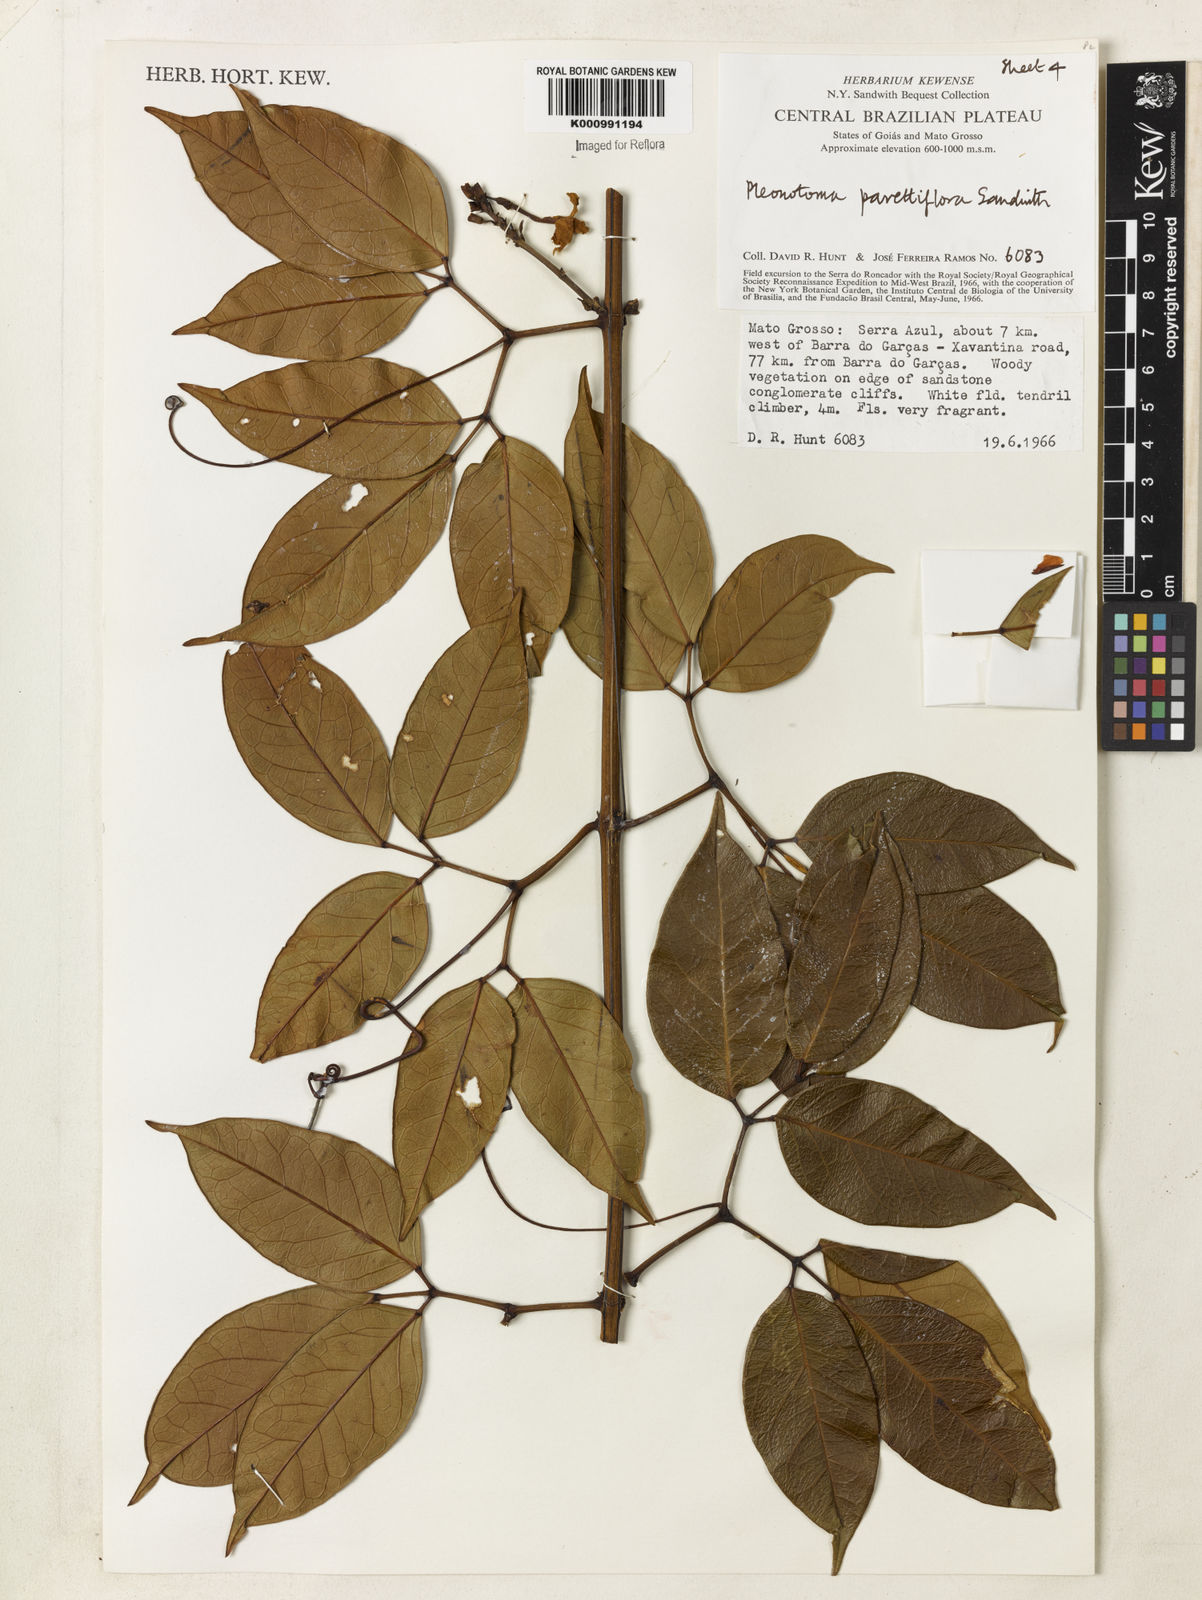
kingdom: Plantae
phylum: Tracheophyta
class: Magnoliopsida
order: Lamiales
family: Bignoniaceae
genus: Pleonotoma
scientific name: Pleonotoma pavettiflora
